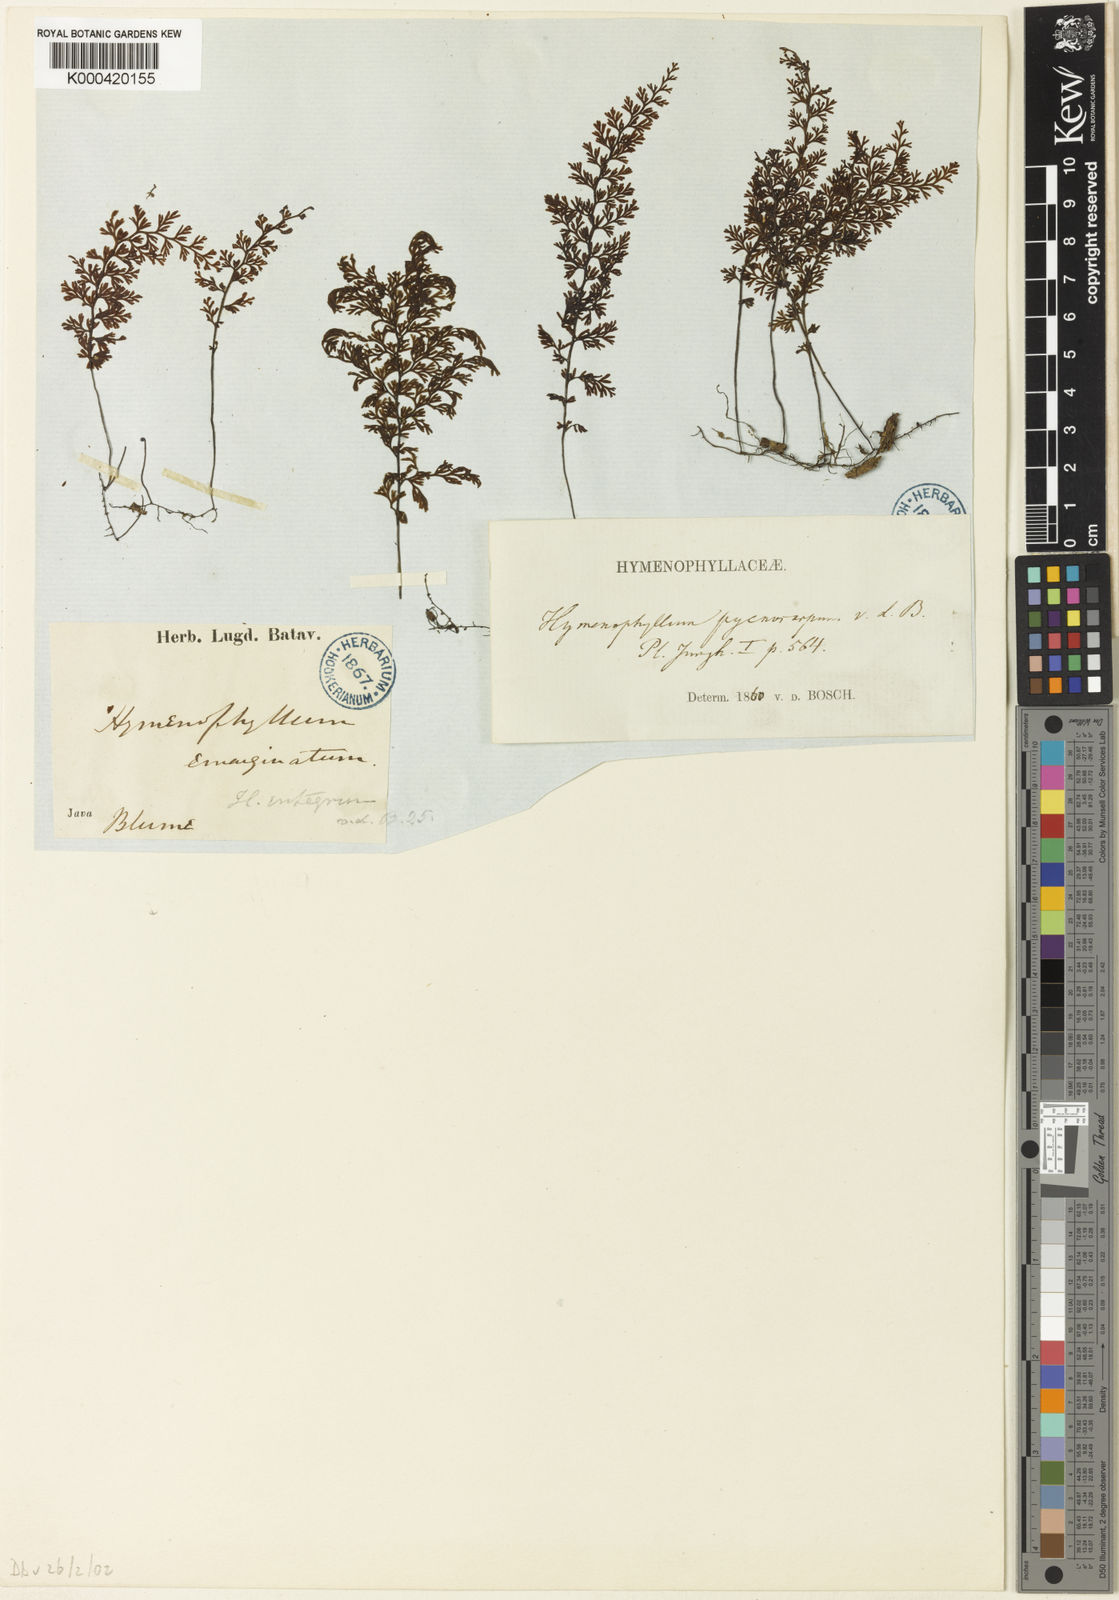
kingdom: Plantae
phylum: Tracheophyta
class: Polypodiopsida
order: Hymenophyllales
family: Hymenophyllaceae
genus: Hymenophyllum
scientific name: Hymenophyllum subdemissum
